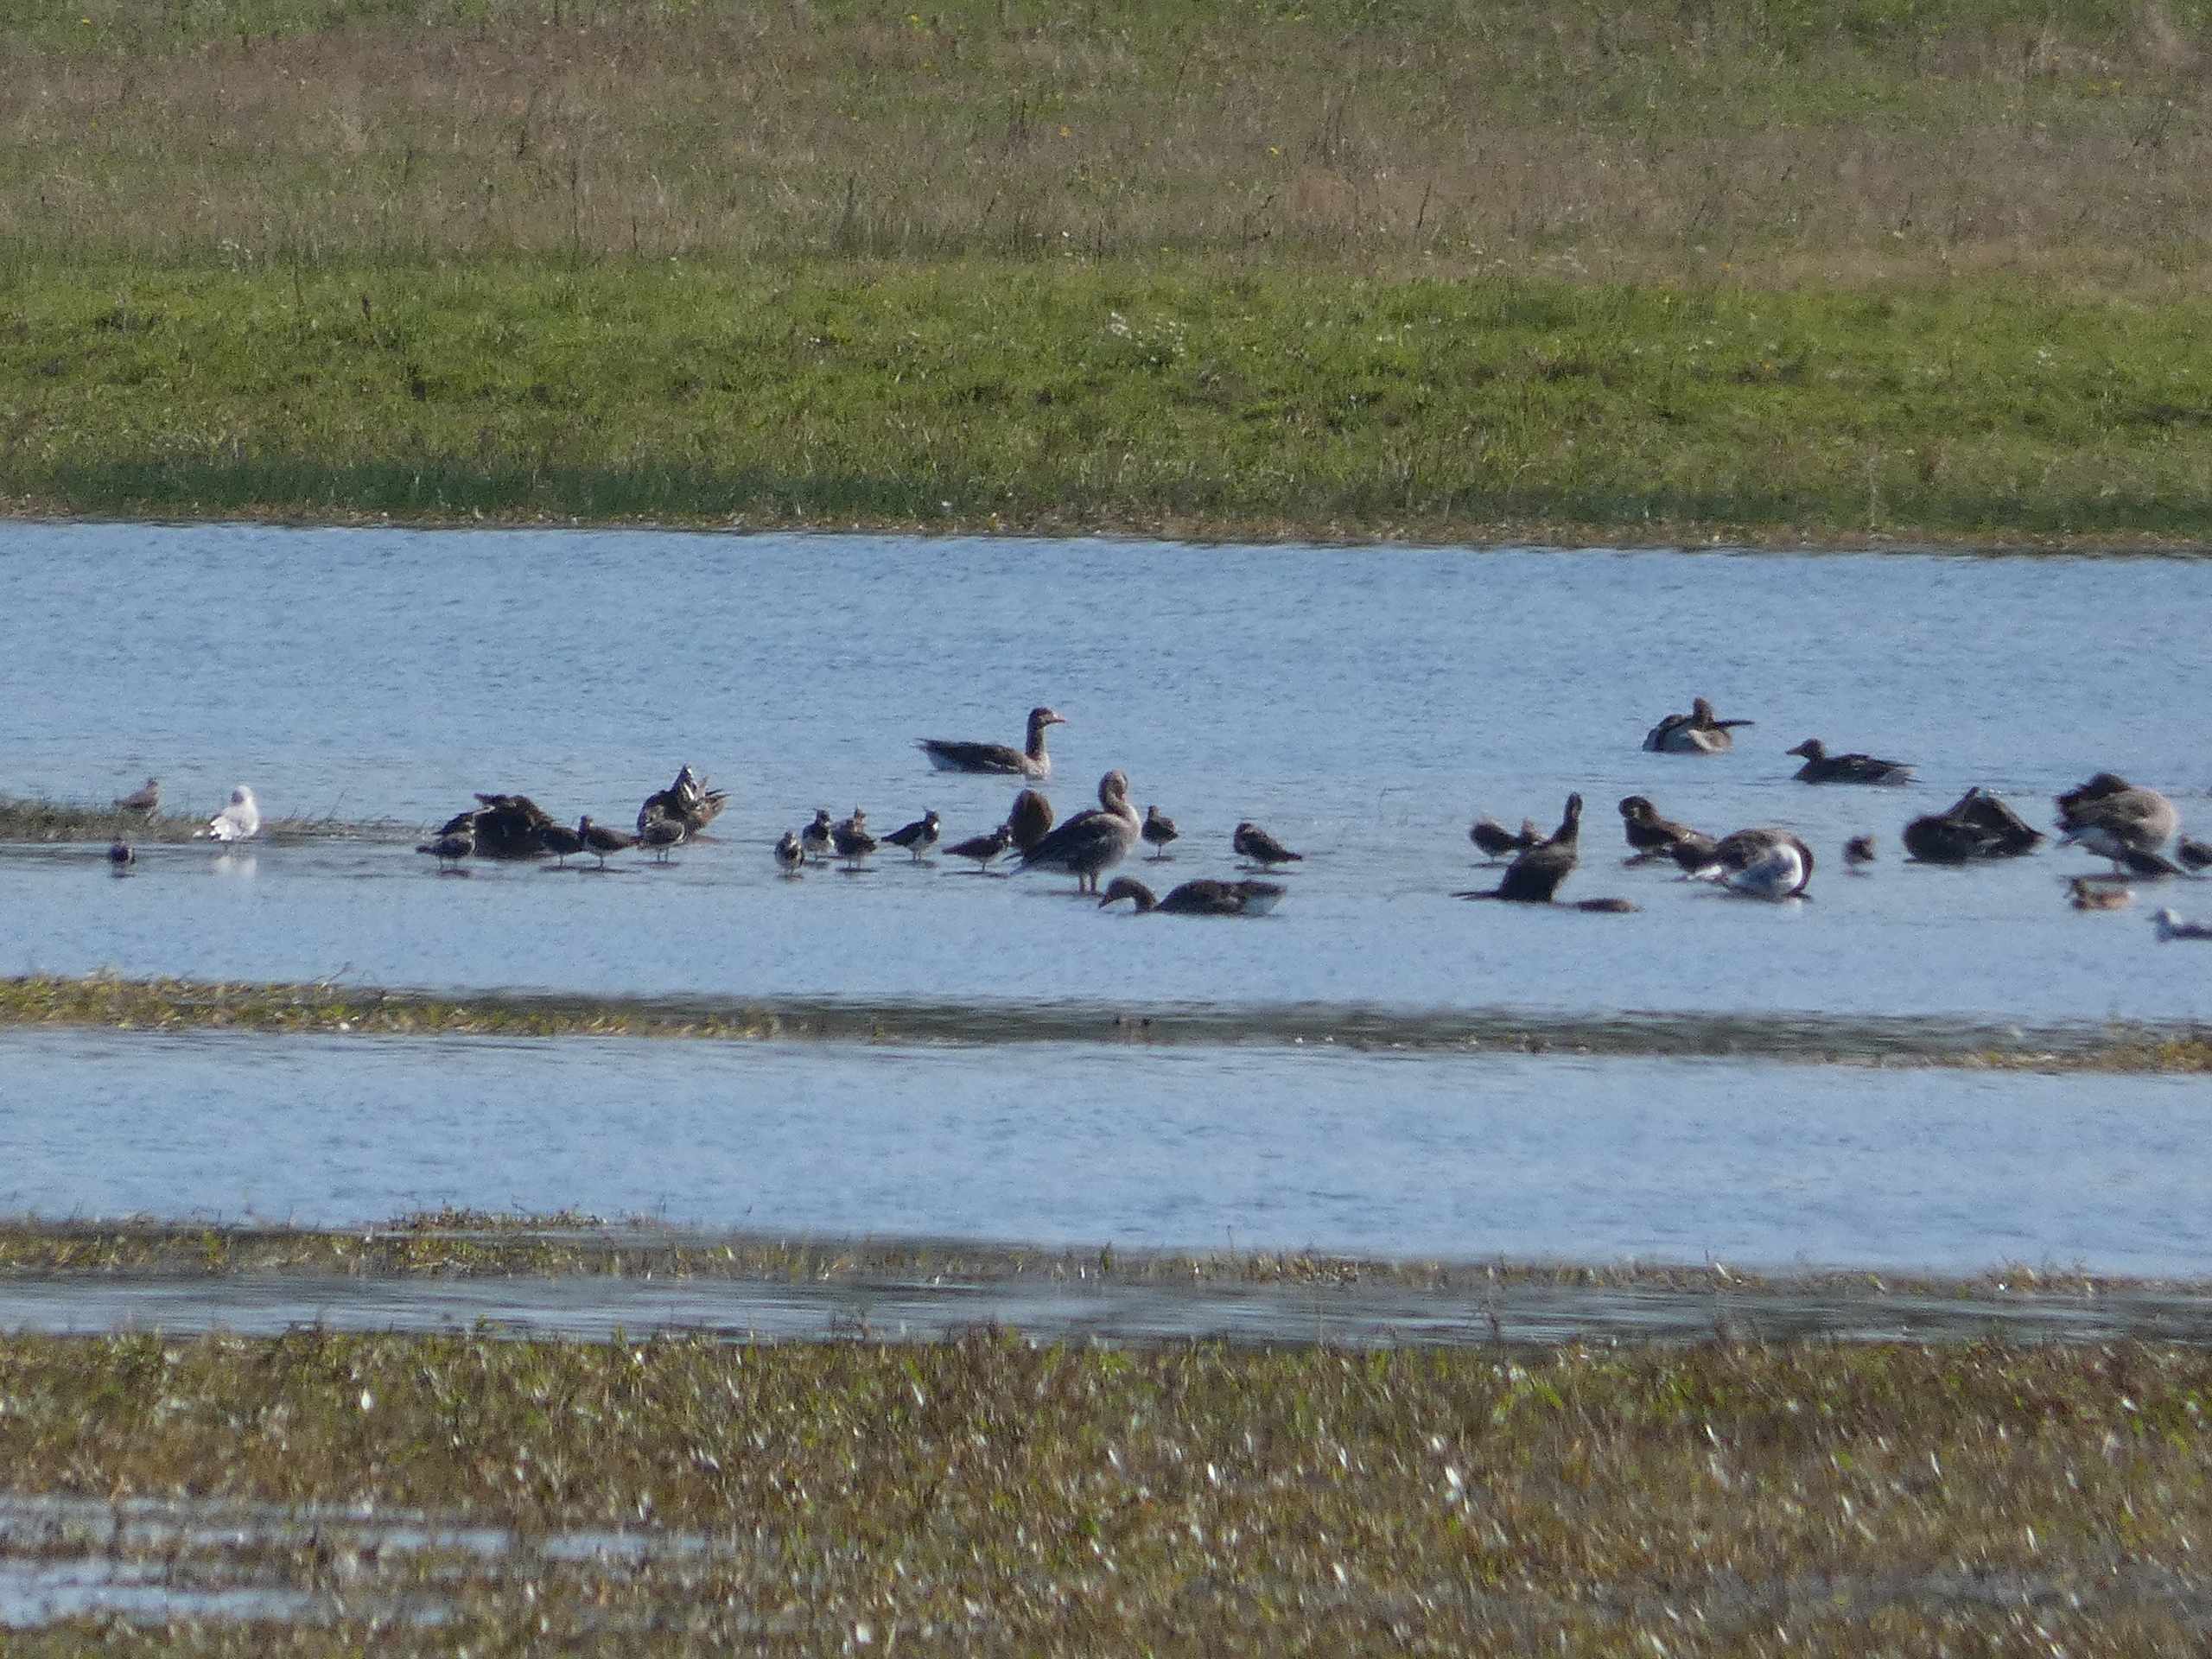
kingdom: Animalia
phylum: Chordata
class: Aves
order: Charadriiformes
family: Charadriidae
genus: Vanellus
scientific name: Vanellus vanellus
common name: Vibe
